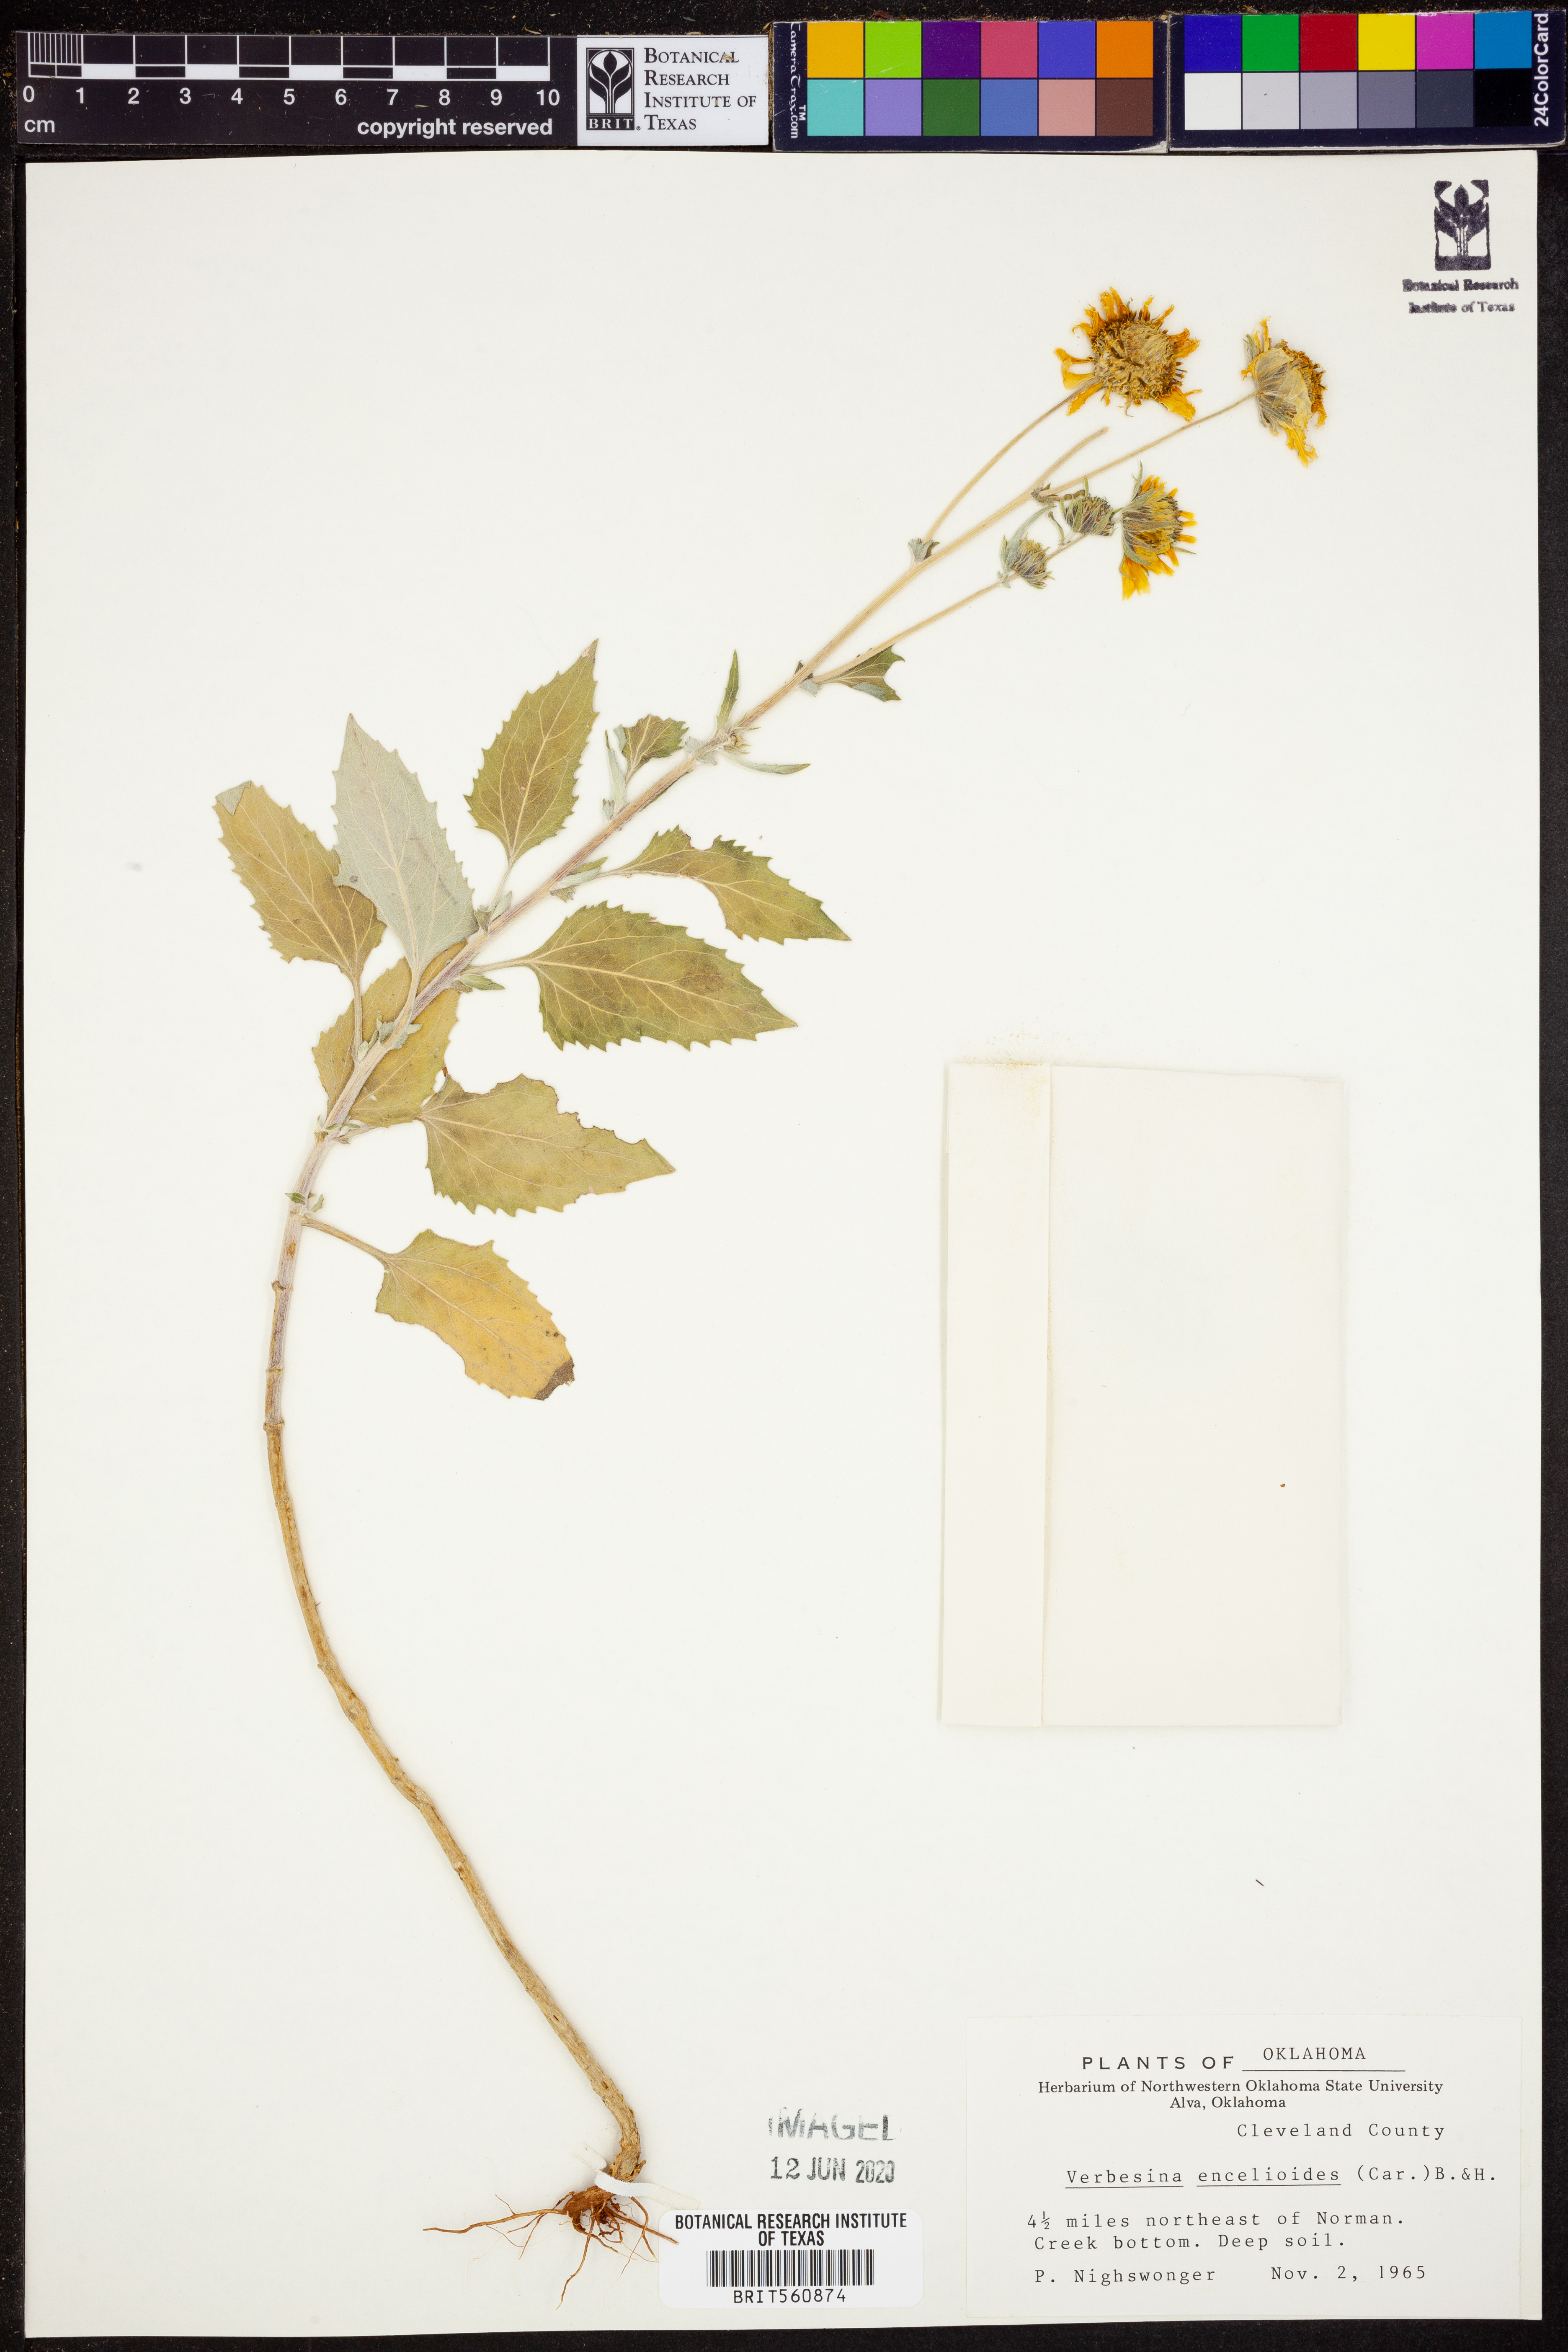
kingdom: Plantae
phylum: Tracheophyta
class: Magnoliopsida
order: Asterales
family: Asteraceae
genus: Verbesina
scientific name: Verbesina encelioides
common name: Golden crownbeard
